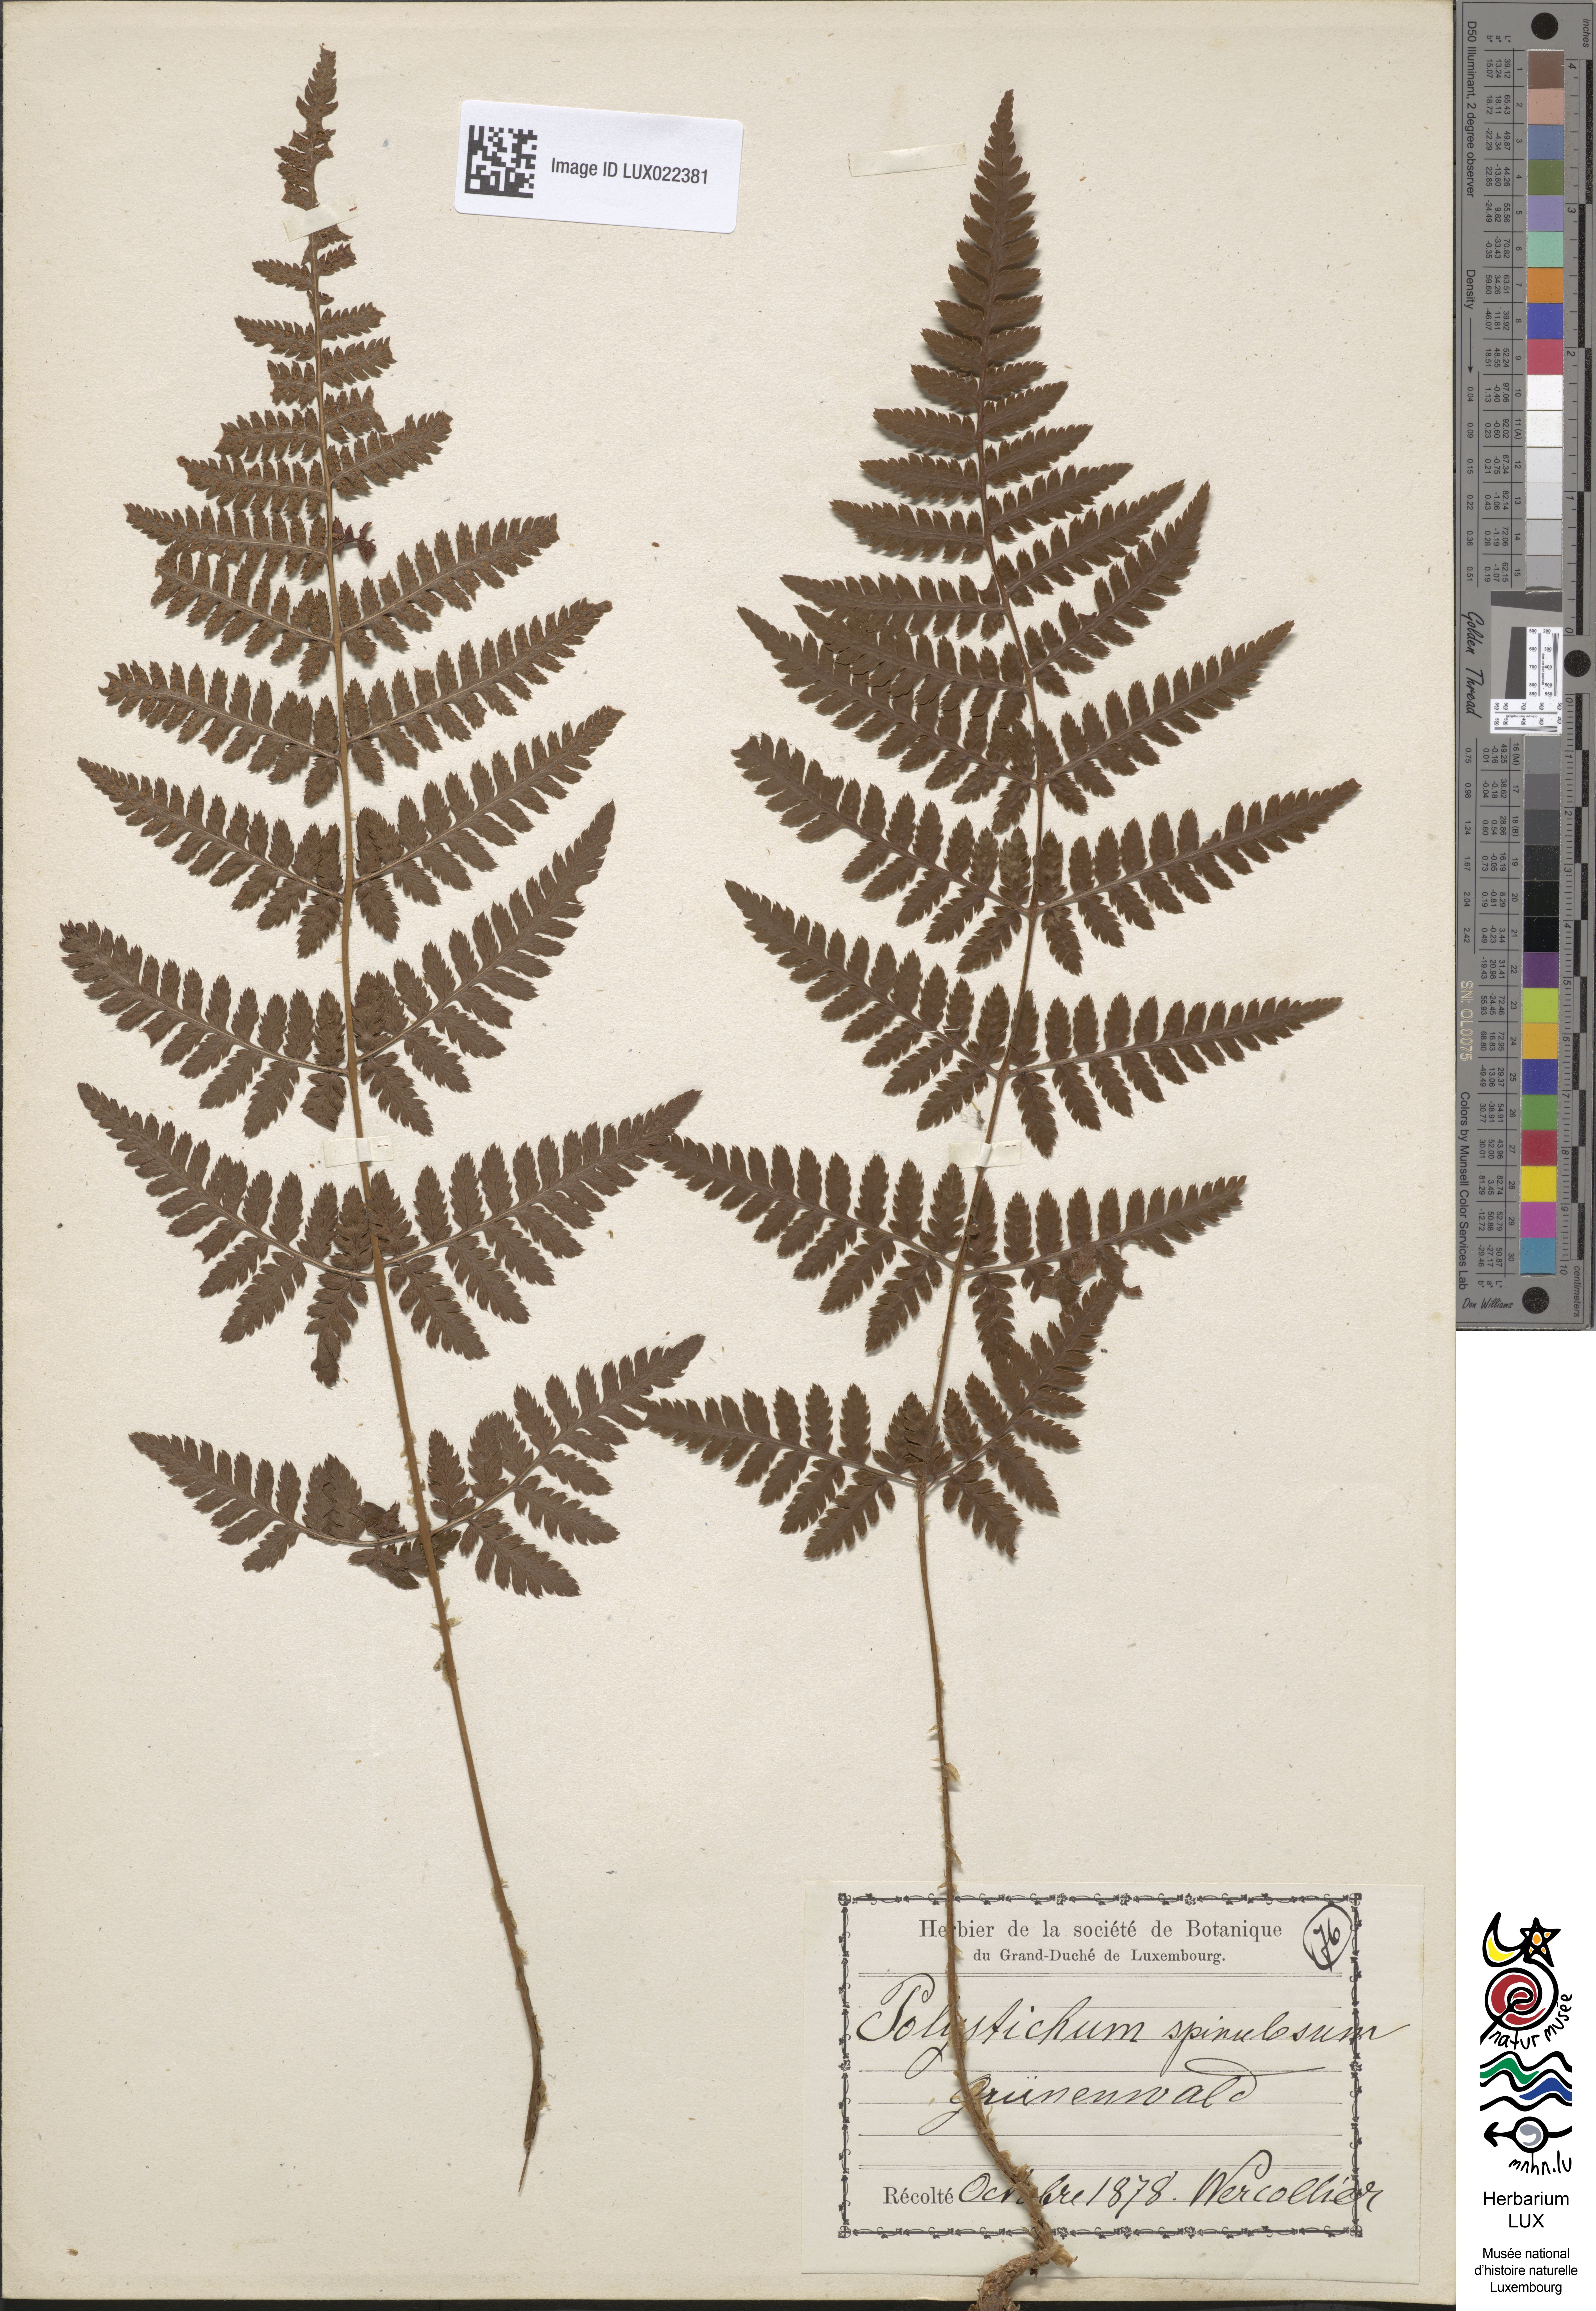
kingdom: Plantae
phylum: Tracheophyta
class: Polypodiopsida
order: Polypodiales
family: Dryopteridaceae
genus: Dryopteris
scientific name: Dryopteris carthusiana
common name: Narrow buckler-fern
